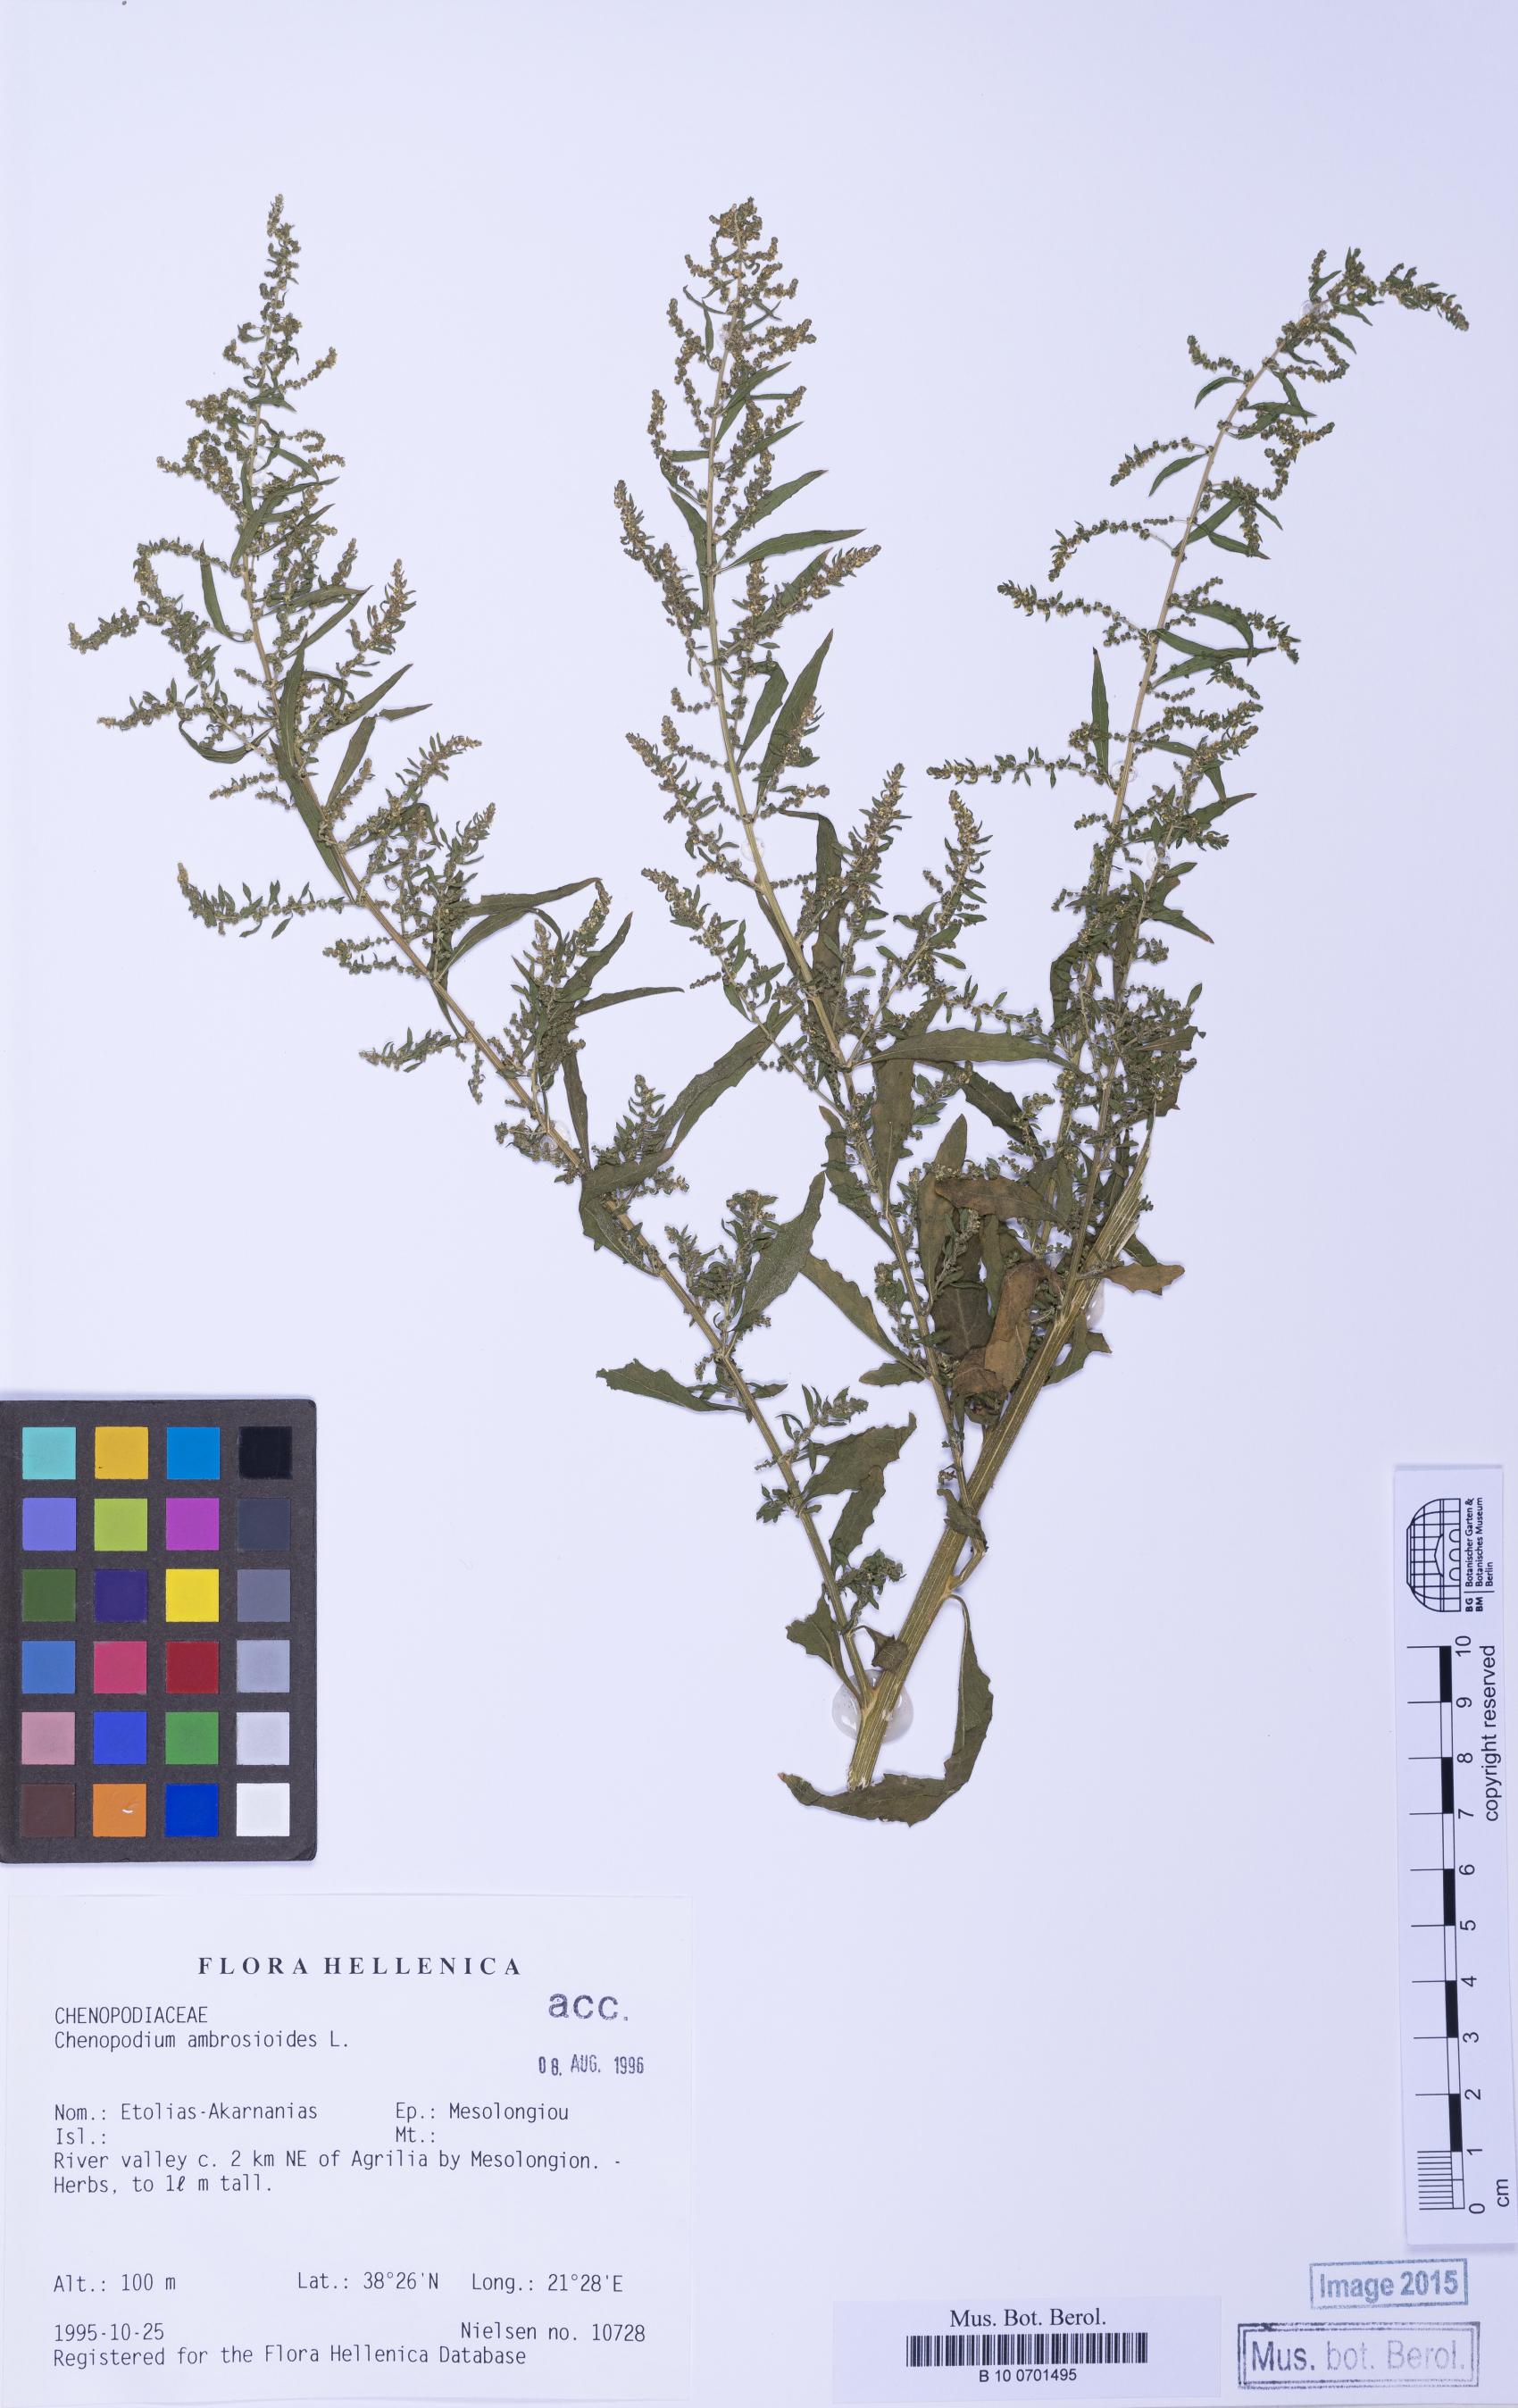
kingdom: Plantae
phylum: Tracheophyta
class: Magnoliopsida
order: Caryophyllales
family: Amaranthaceae
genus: Dysphania
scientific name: Dysphania ambrosioides
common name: Wormseed
